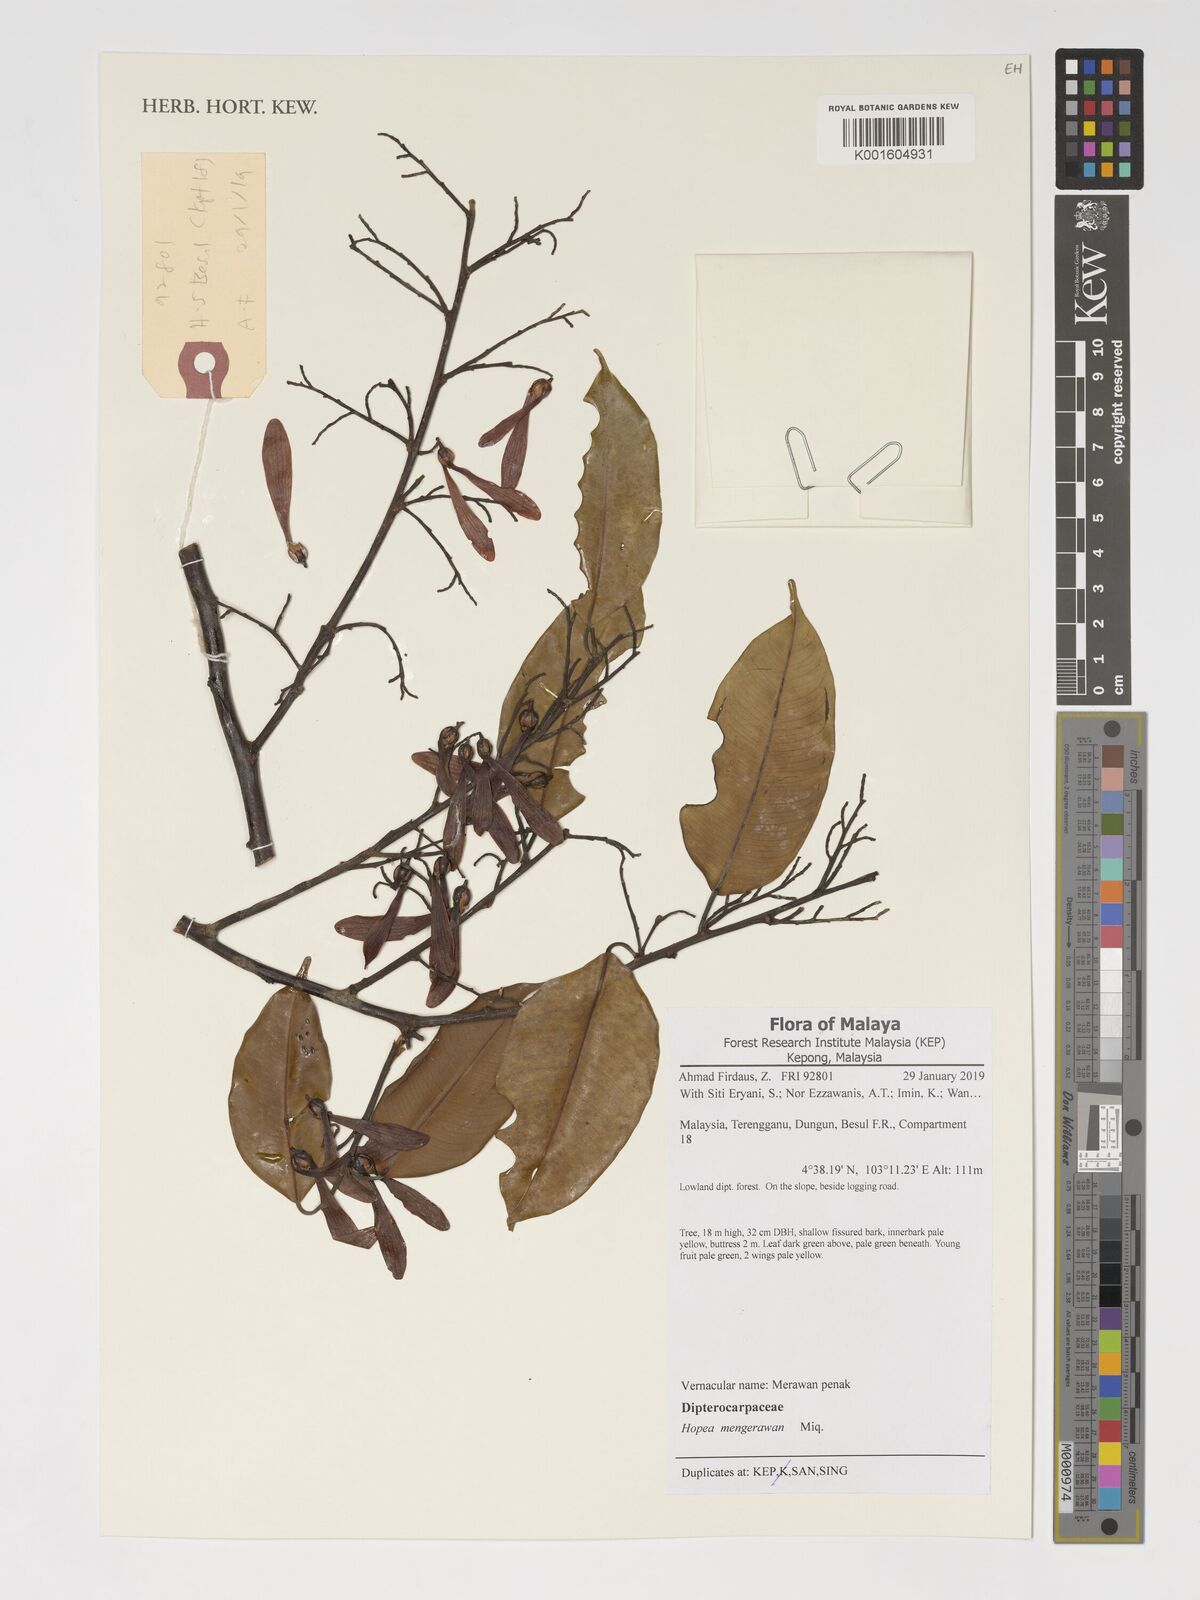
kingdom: Plantae
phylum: Tracheophyta
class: Magnoliopsida
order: Malvales
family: Dipterocarpaceae
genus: Hopea
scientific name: Hopea mengarawan
